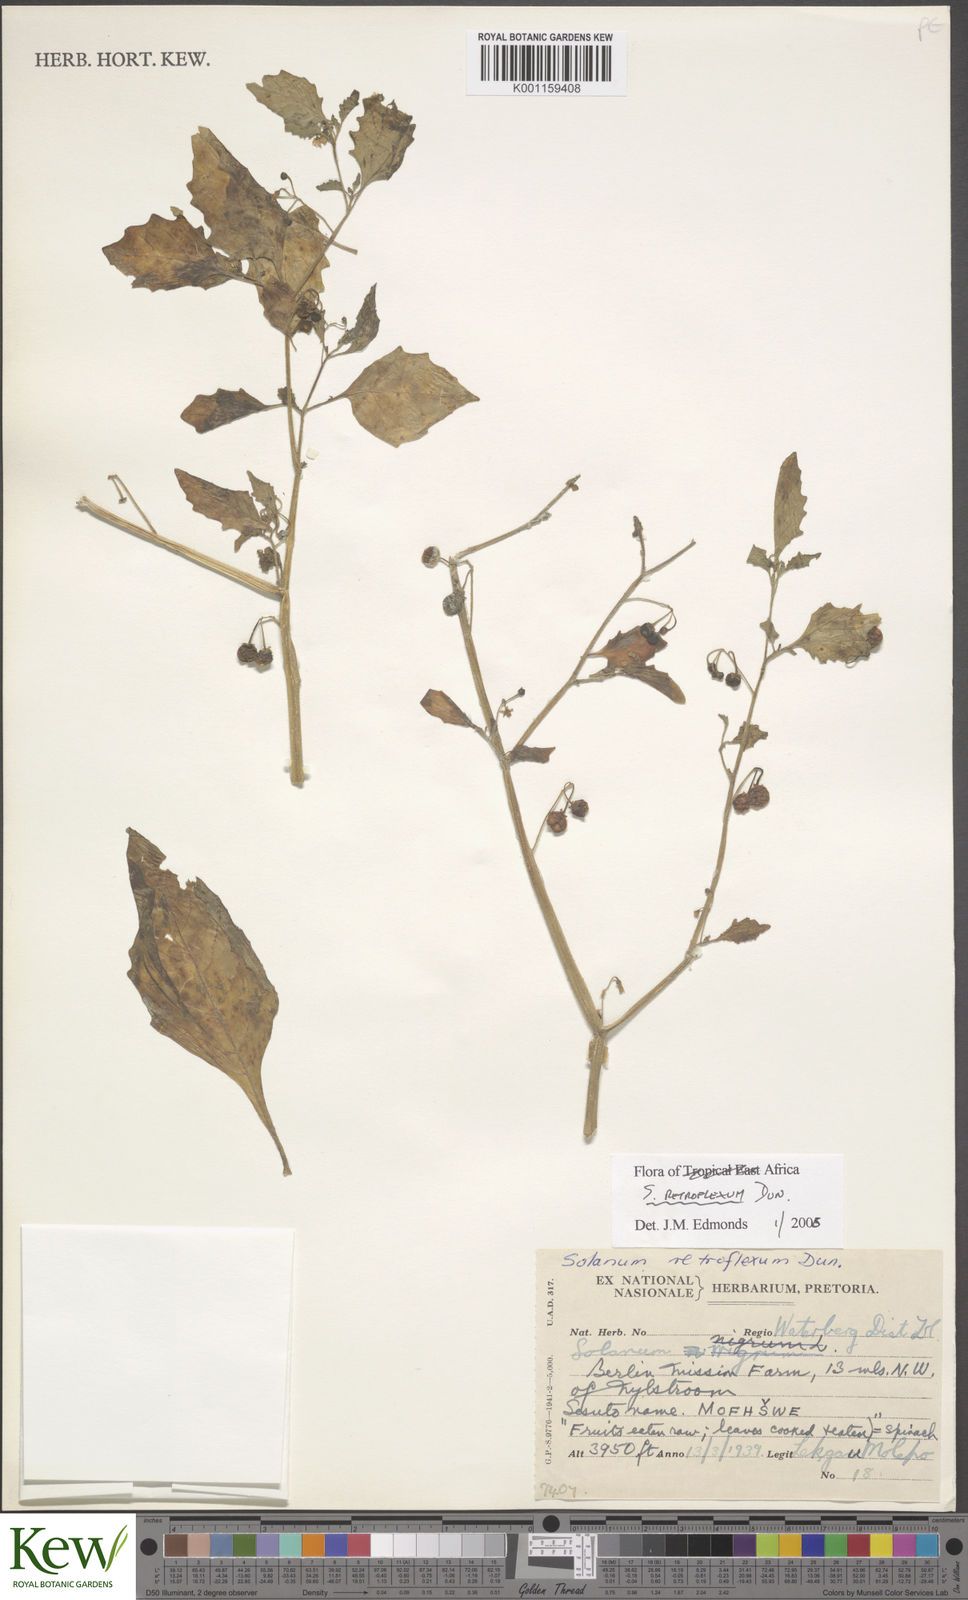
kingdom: Plantae
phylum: Tracheophyta
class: Magnoliopsida
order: Solanales
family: Solanaceae
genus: Solanum
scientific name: Solanum retroflexum
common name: Wonderberry
